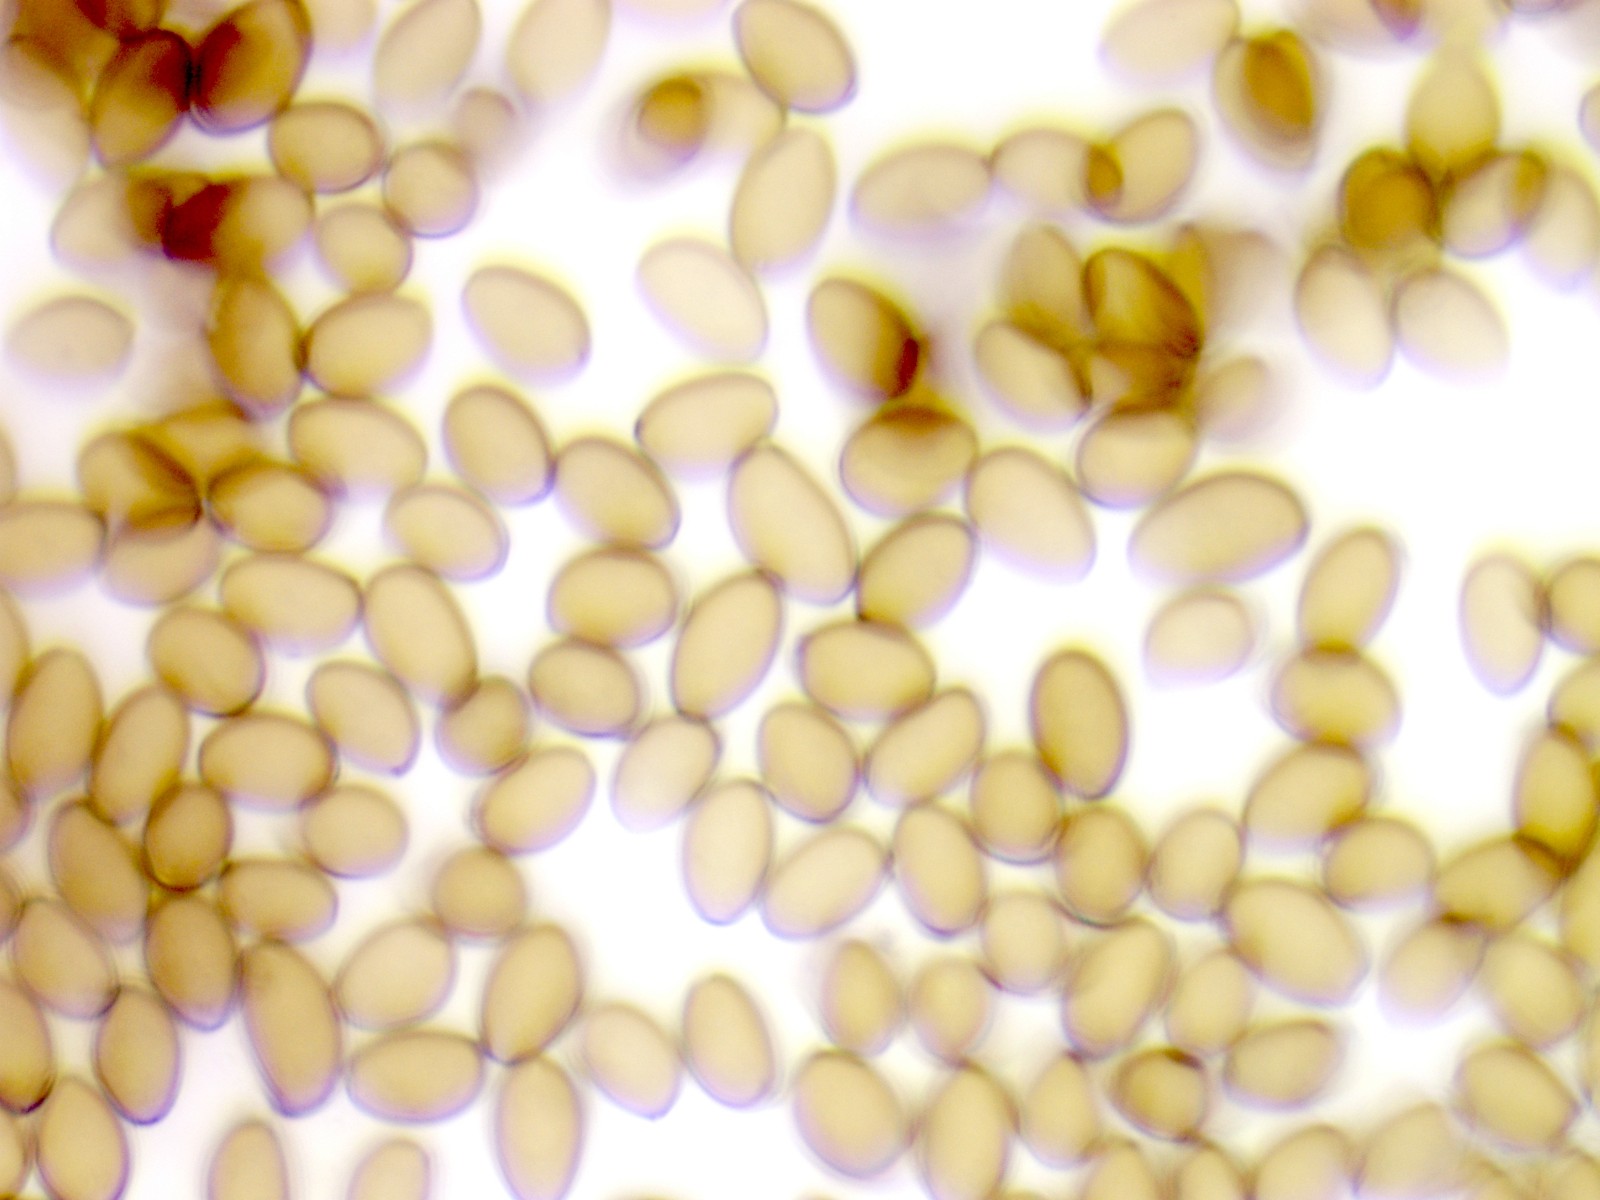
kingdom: Fungi
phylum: Basidiomycota
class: Agaricomycetes
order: Agaricales
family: Strophariaceae
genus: Agrocybe
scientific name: Agrocybe rivulosa
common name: året agerhat
